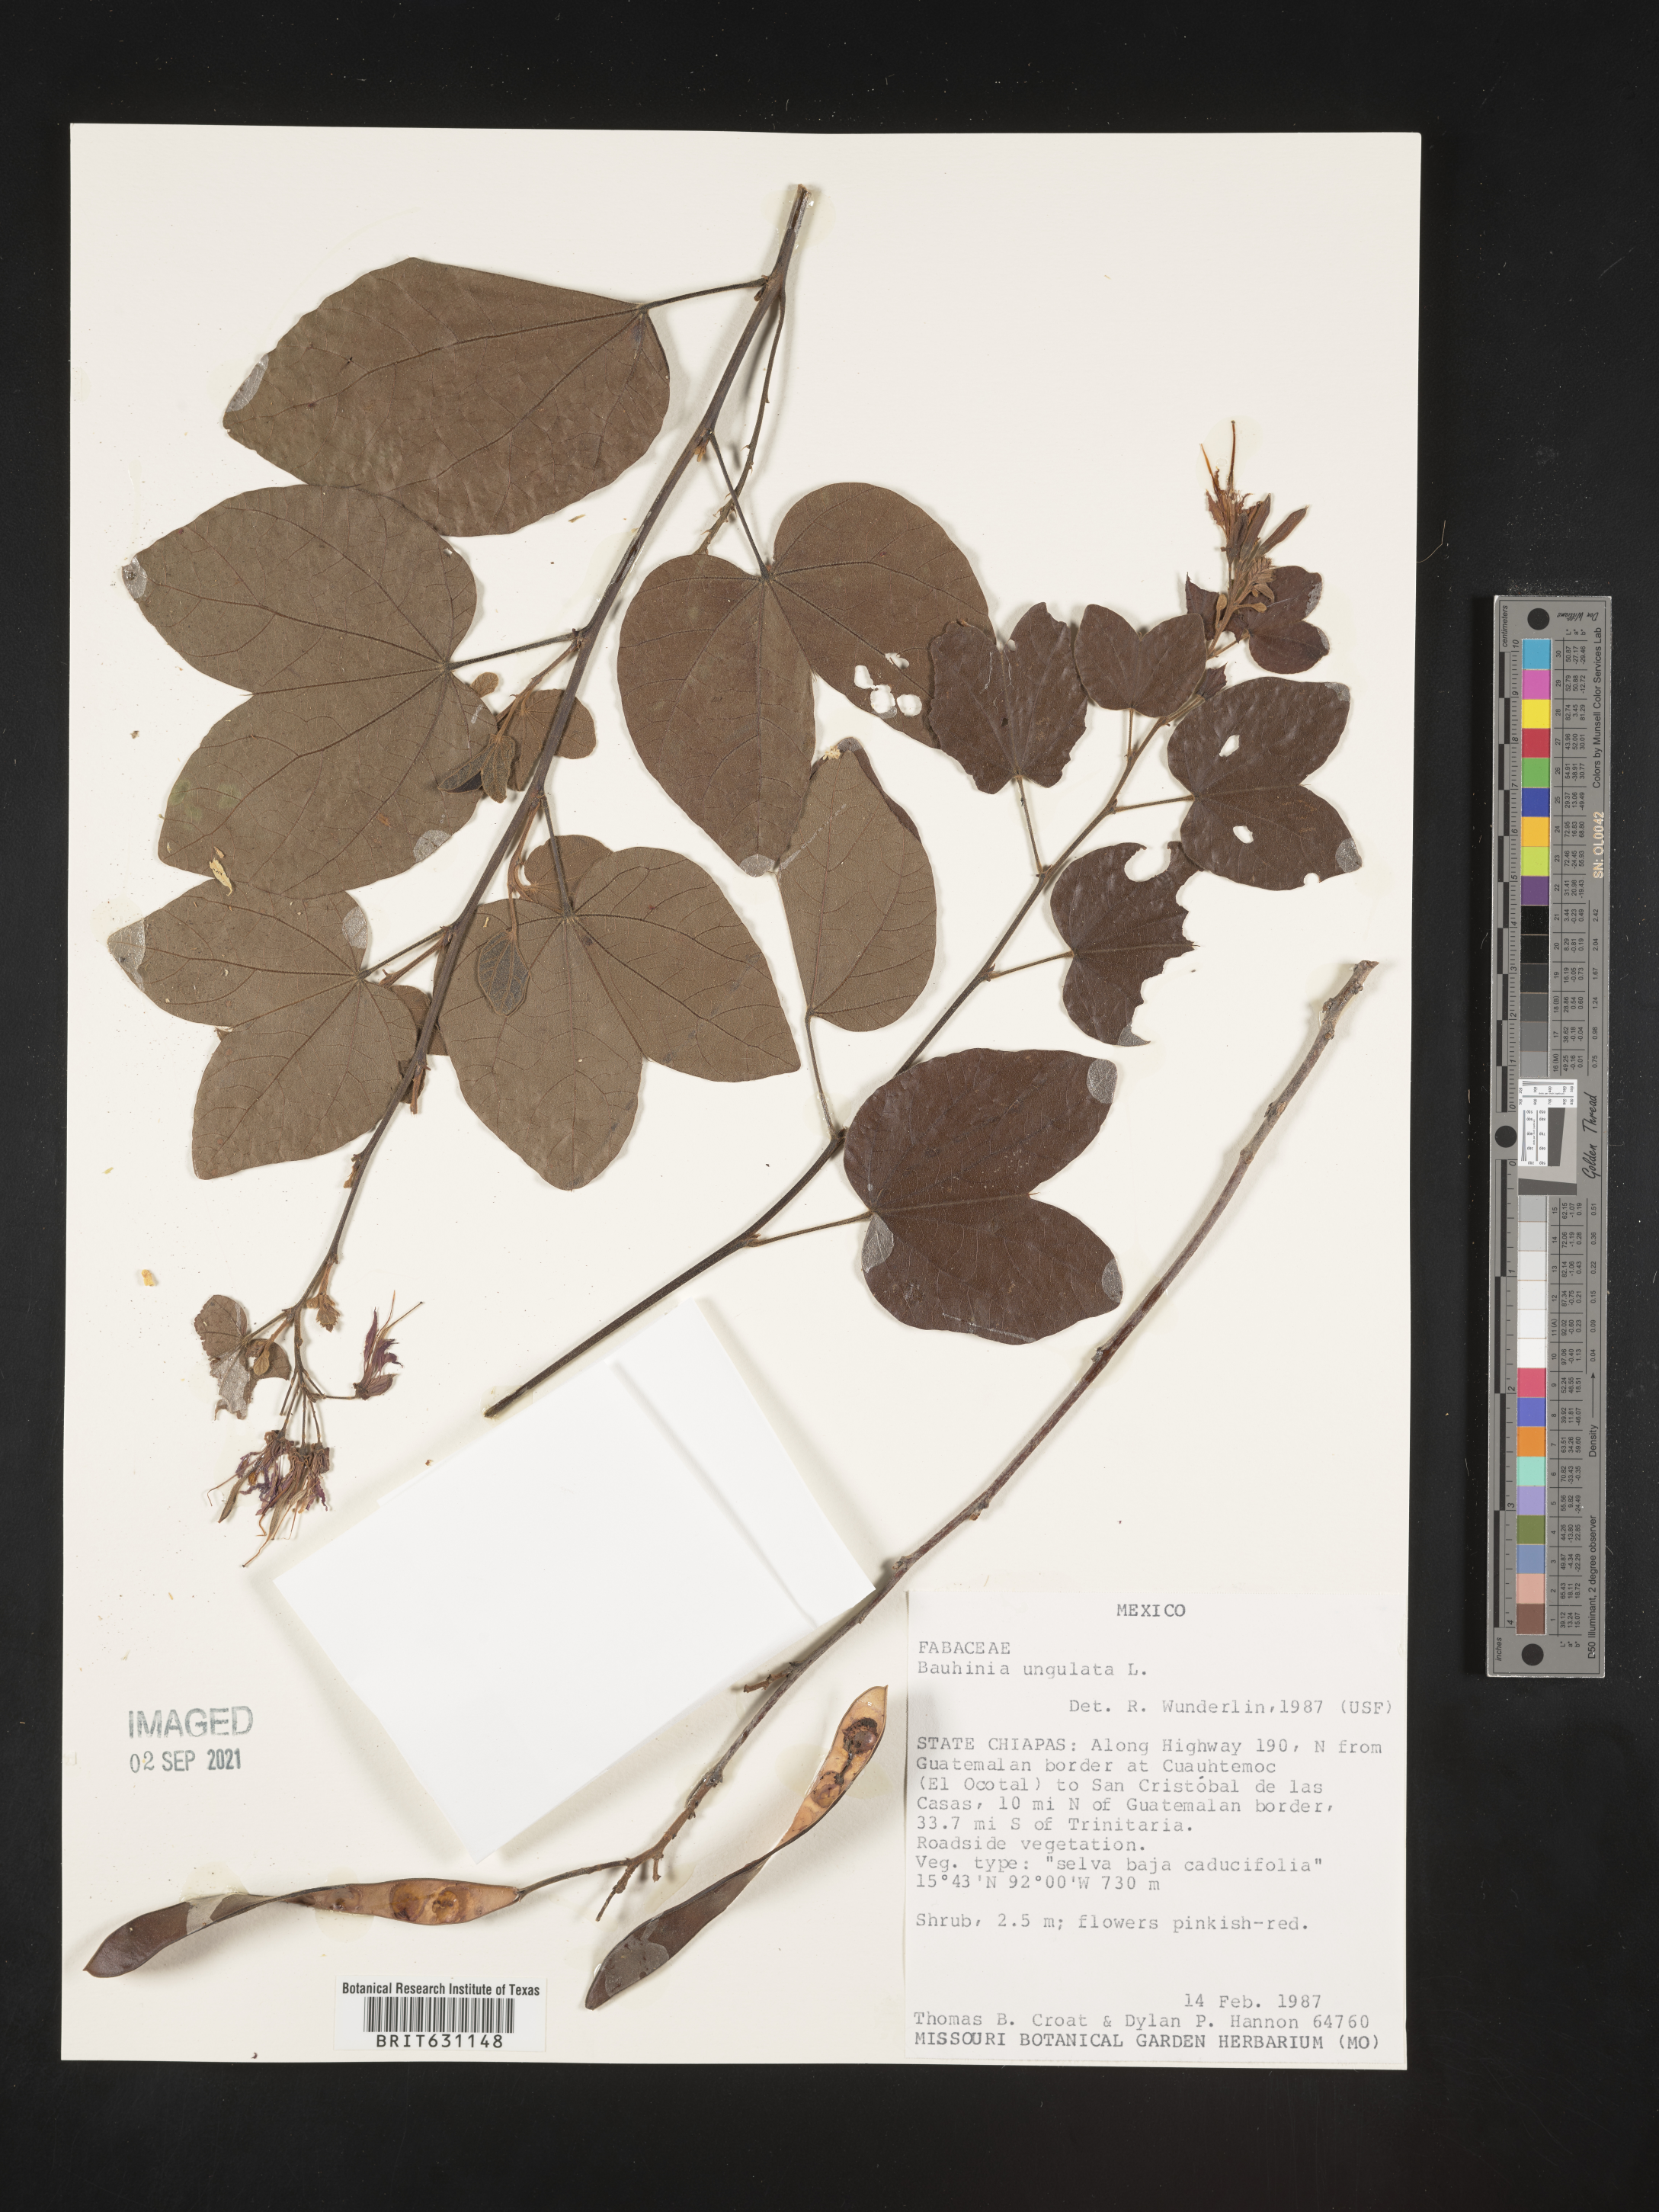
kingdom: Plantae
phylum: Tracheophyta
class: Magnoliopsida
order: Fabales
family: Fabaceae
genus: Bauhinia
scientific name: Bauhinia
